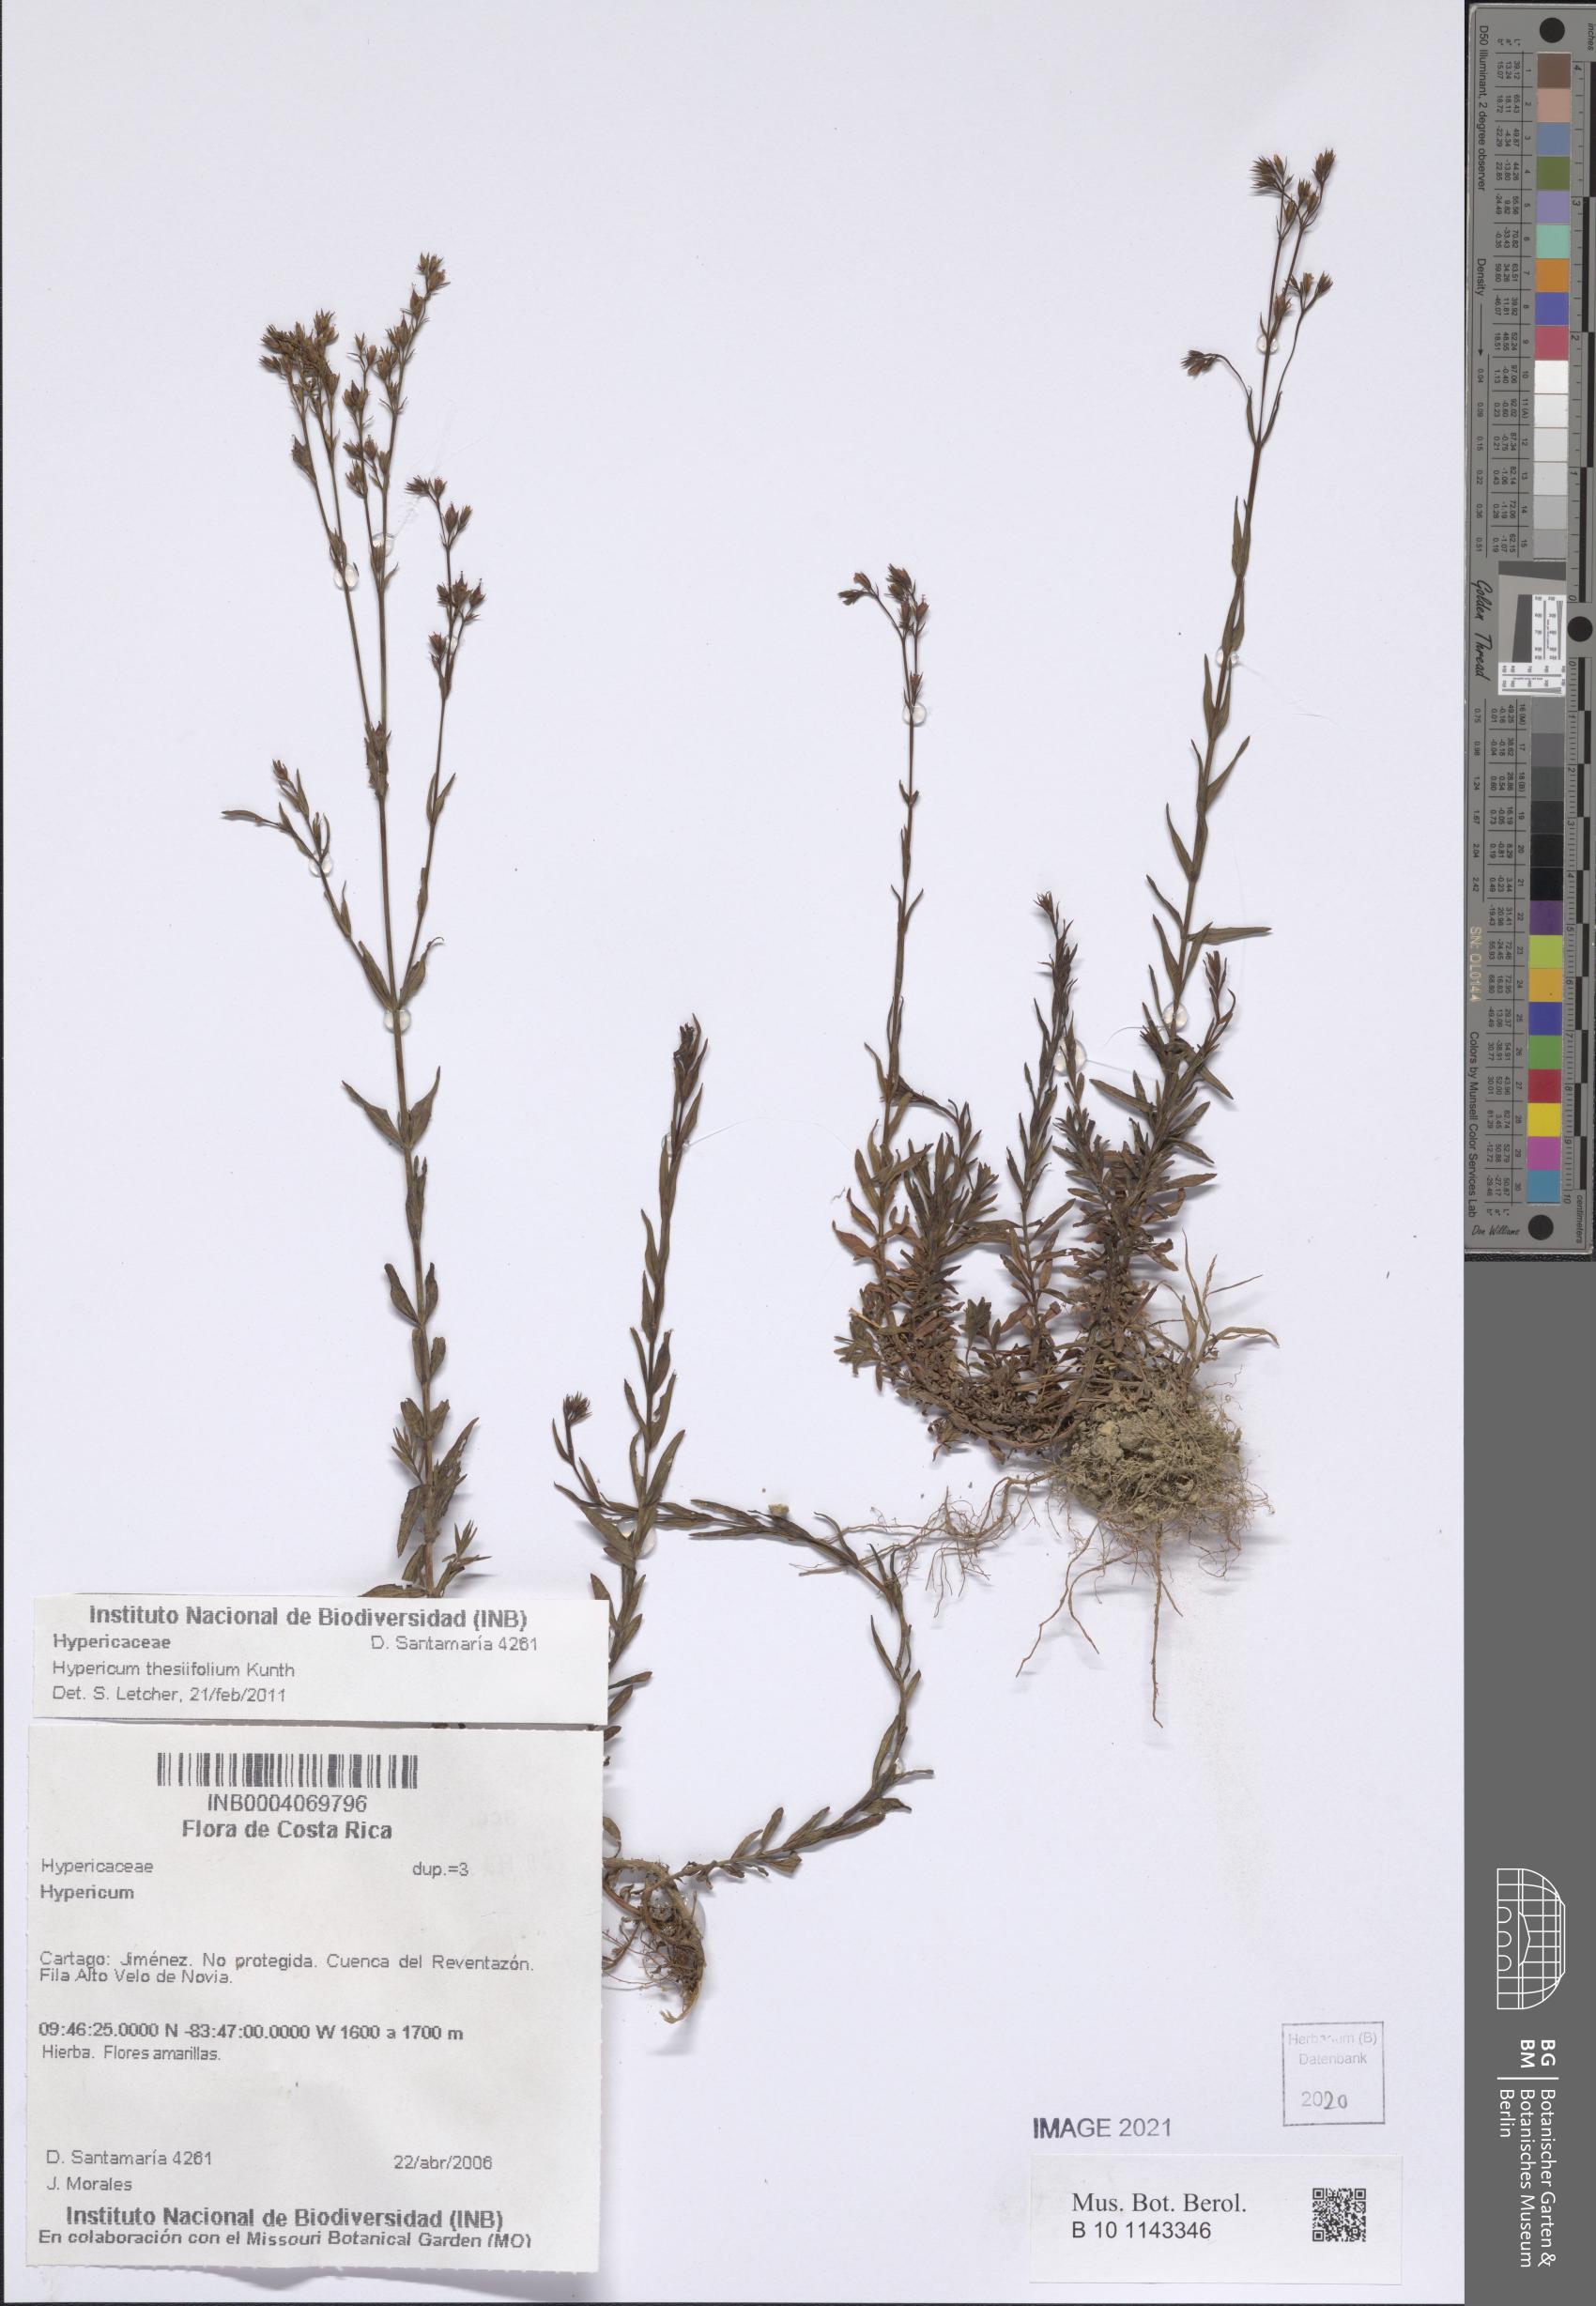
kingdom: Plantae
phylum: Tracheophyta
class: Magnoliopsida
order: Malpighiales
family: Hypericaceae
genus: Hypericum
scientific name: Hypericum thesiifolium
